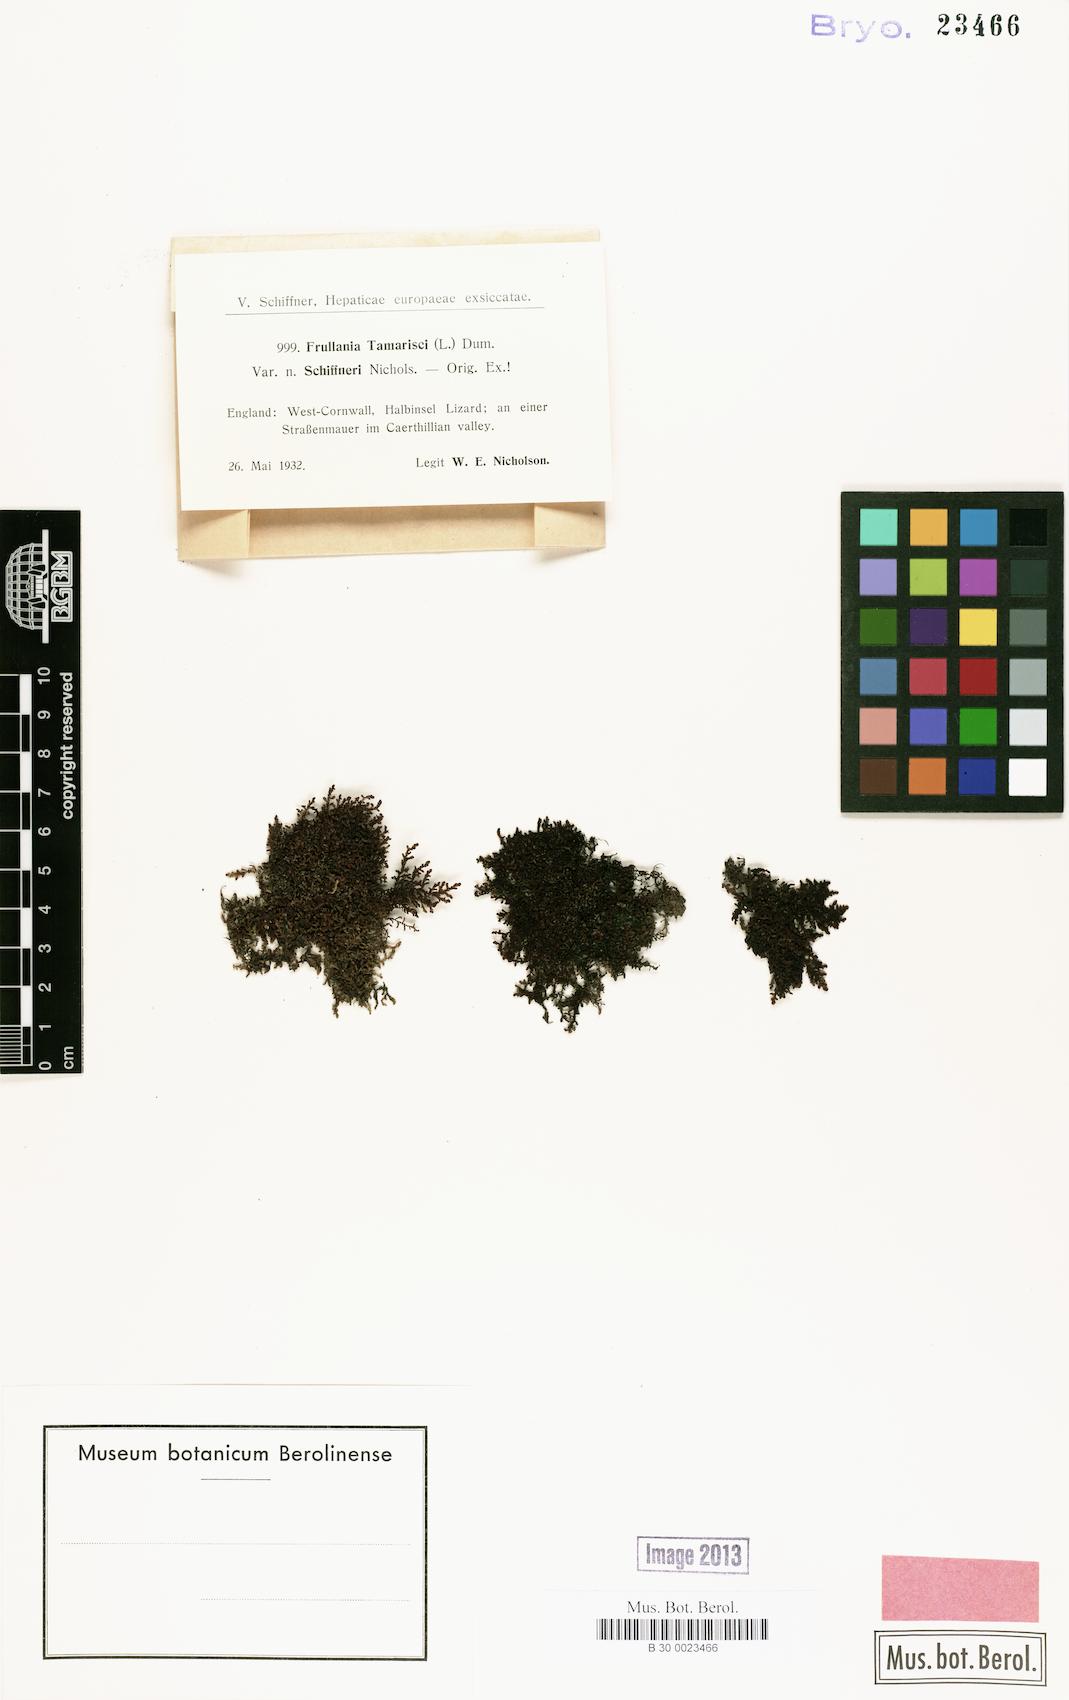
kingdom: Plantae
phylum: Marchantiophyta
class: Jungermanniopsida
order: Porellales
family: Frullaniaceae
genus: Frullania
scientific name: Frullania tamarisci
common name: Tamarisk scalewort
